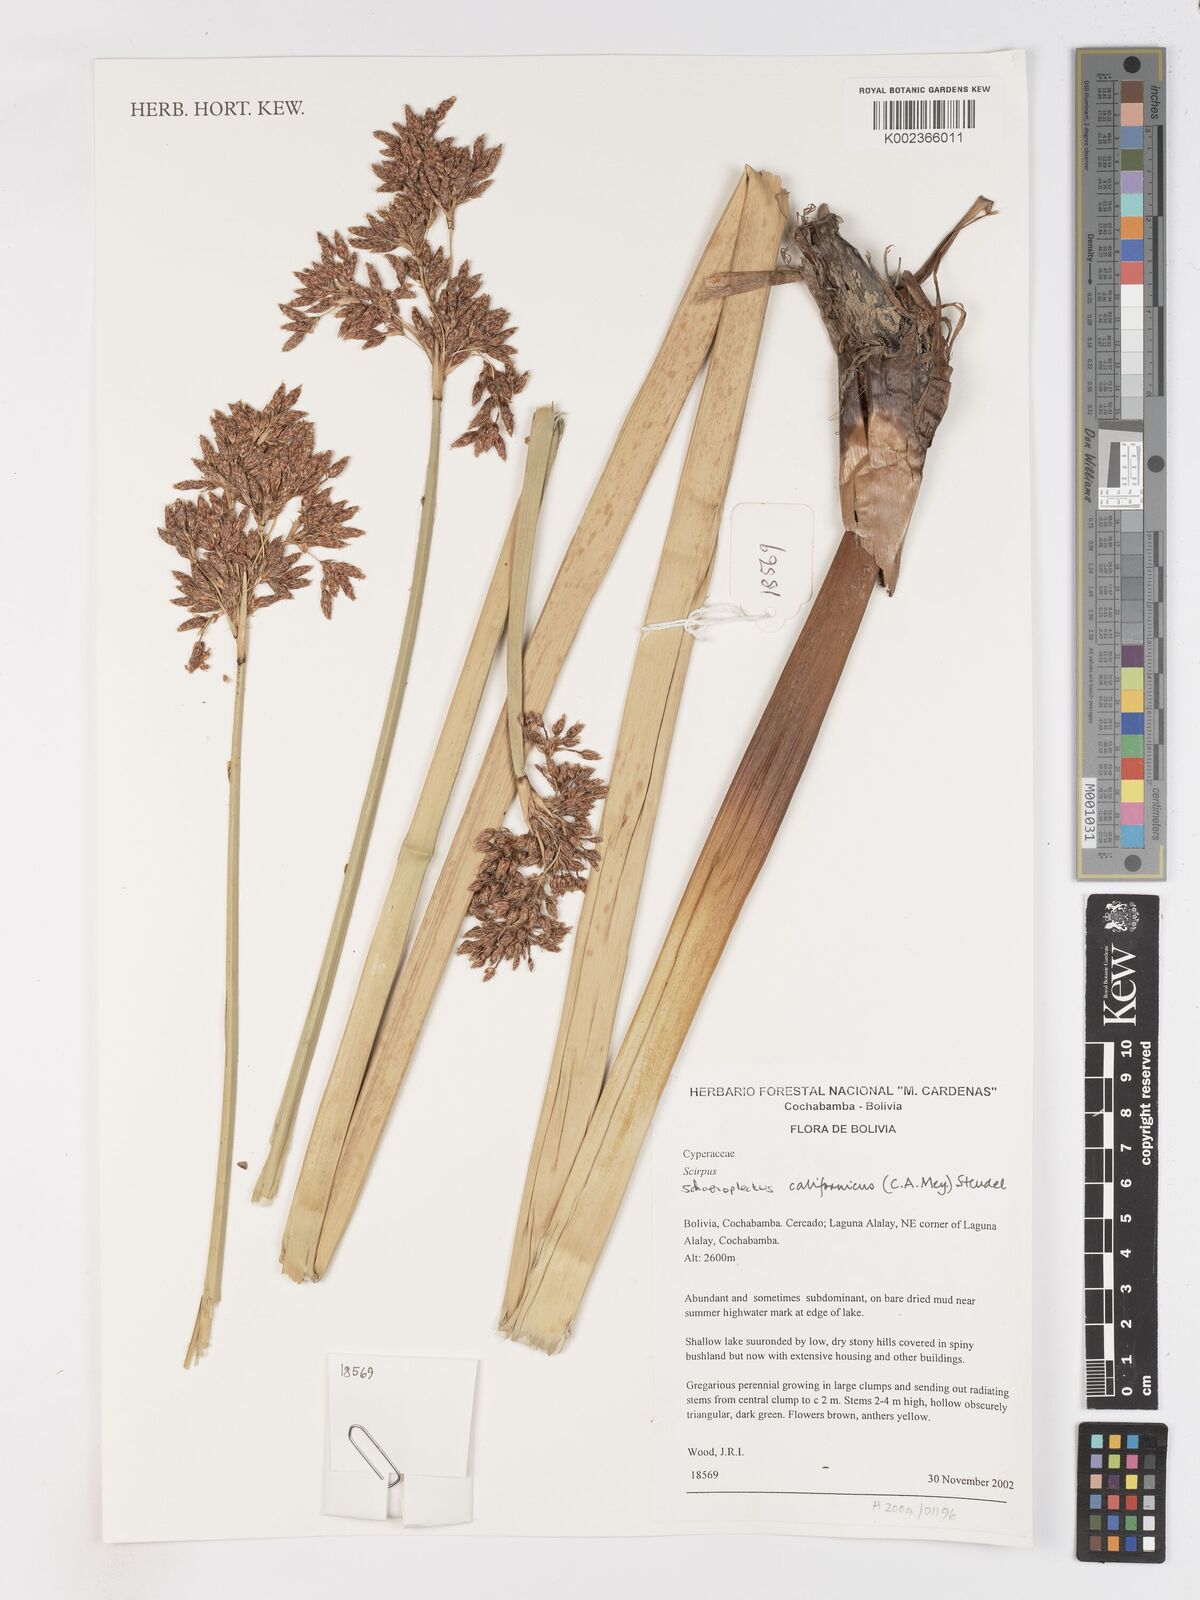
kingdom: Plantae
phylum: Tracheophyta
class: Liliopsida
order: Poales
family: Cyperaceae
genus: Schoenoplectus
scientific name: Schoenoplectus californicus
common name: California bulrush
